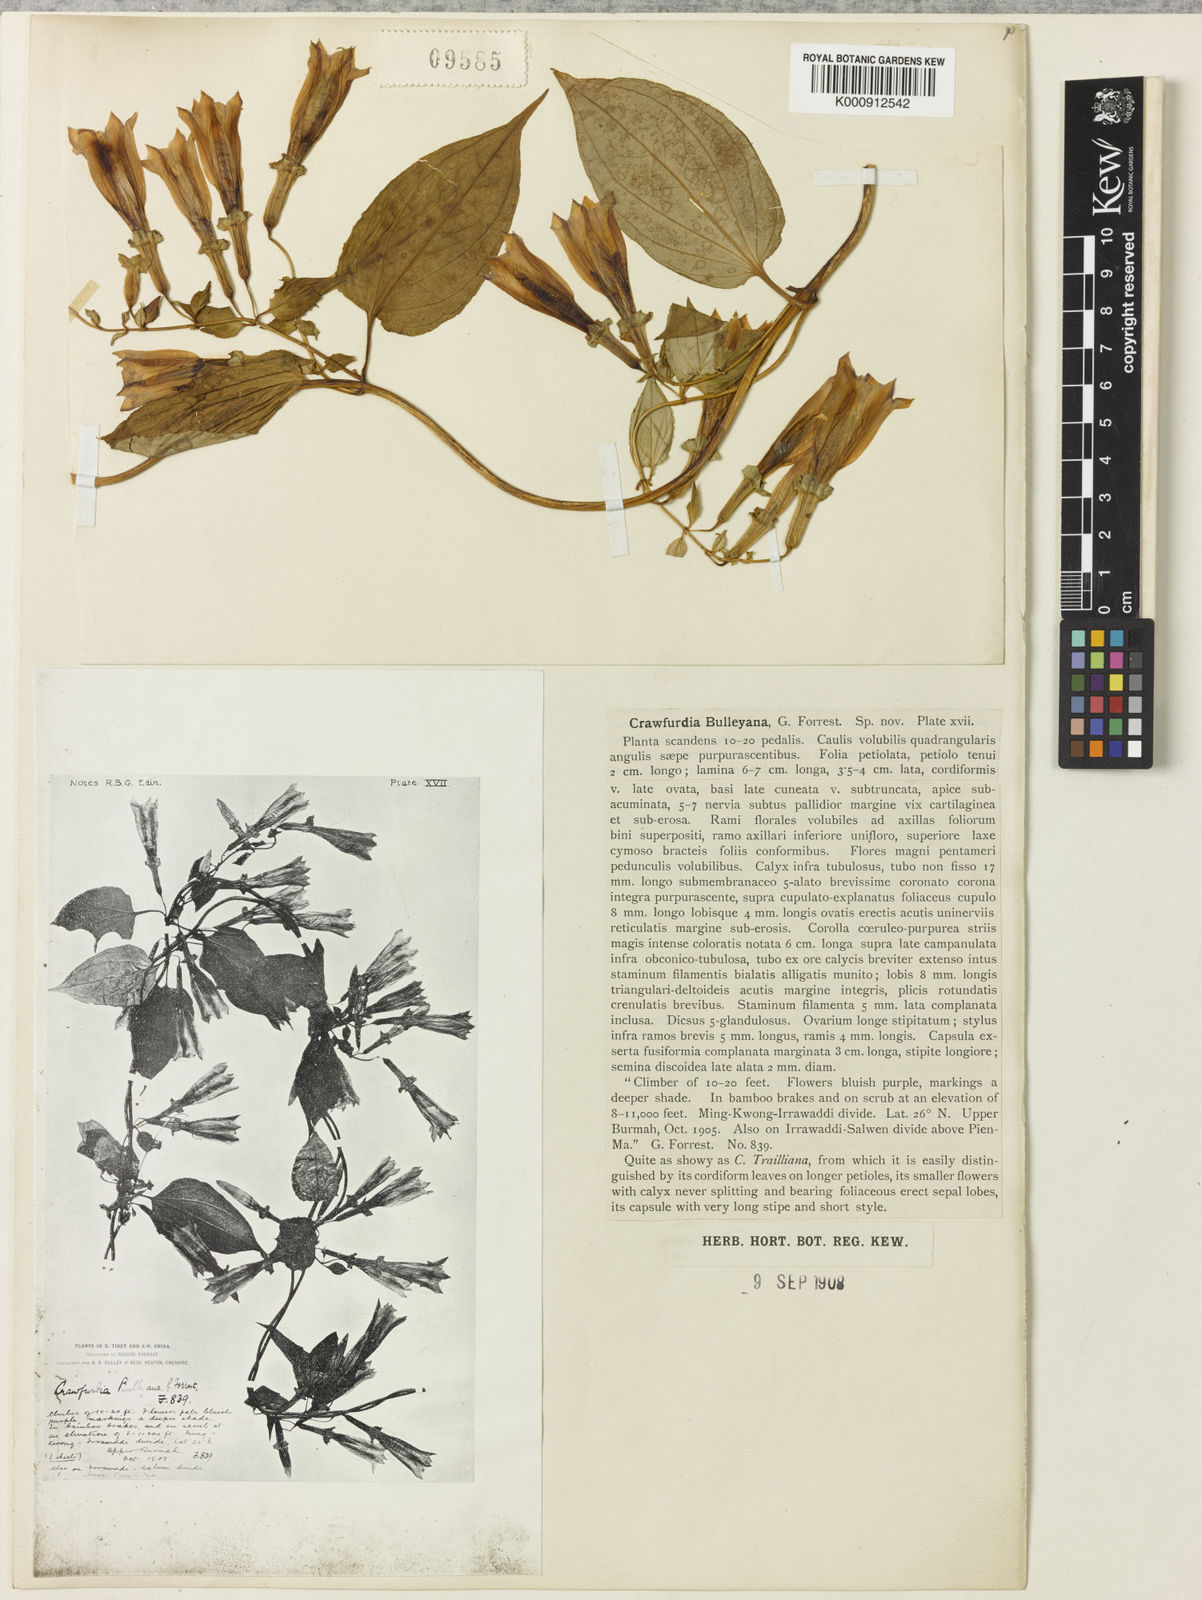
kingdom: Plantae
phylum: Tracheophyta
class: Magnoliopsida
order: Gentianales
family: Gentianaceae
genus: Crawfurdia
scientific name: Crawfurdia campanulacea
